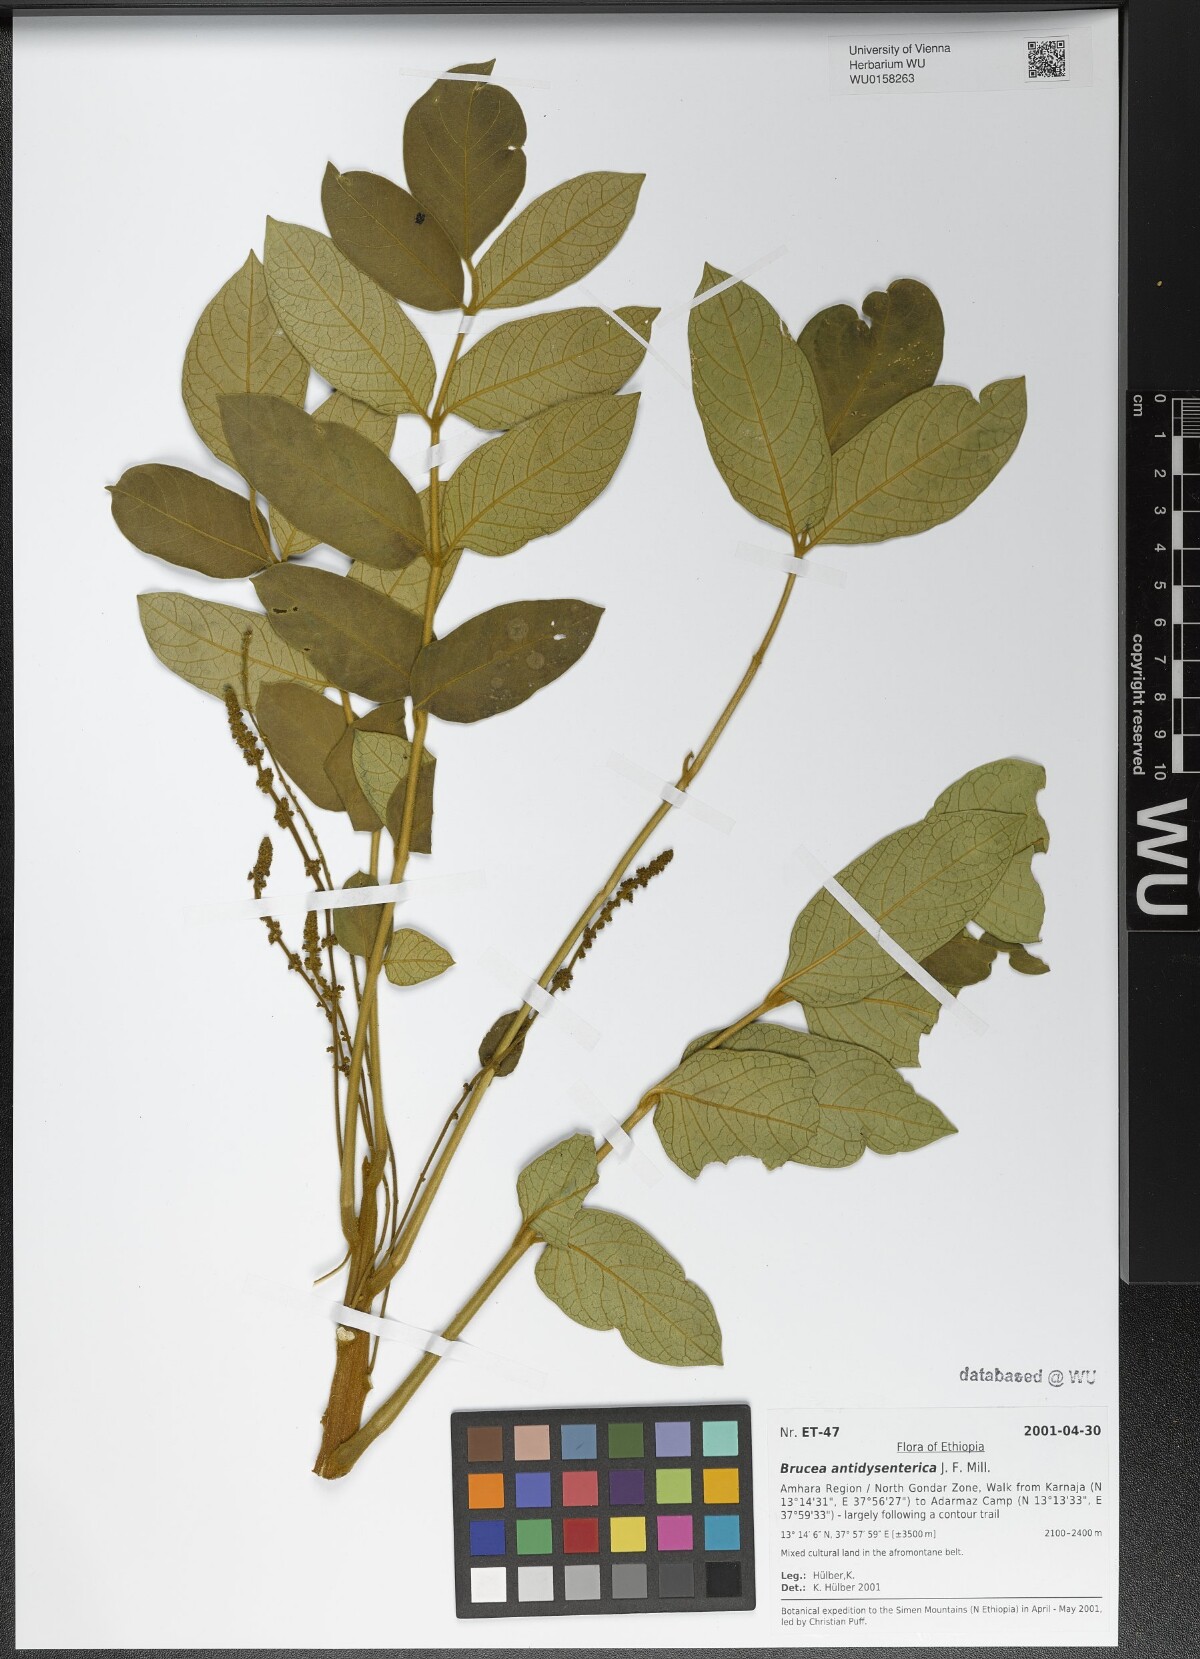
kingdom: Plantae
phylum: Tracheophyta
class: Magnoliopsida
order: Sapindales
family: Simaroubaceae
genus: Brucea
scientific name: Brucea antidysenterica
